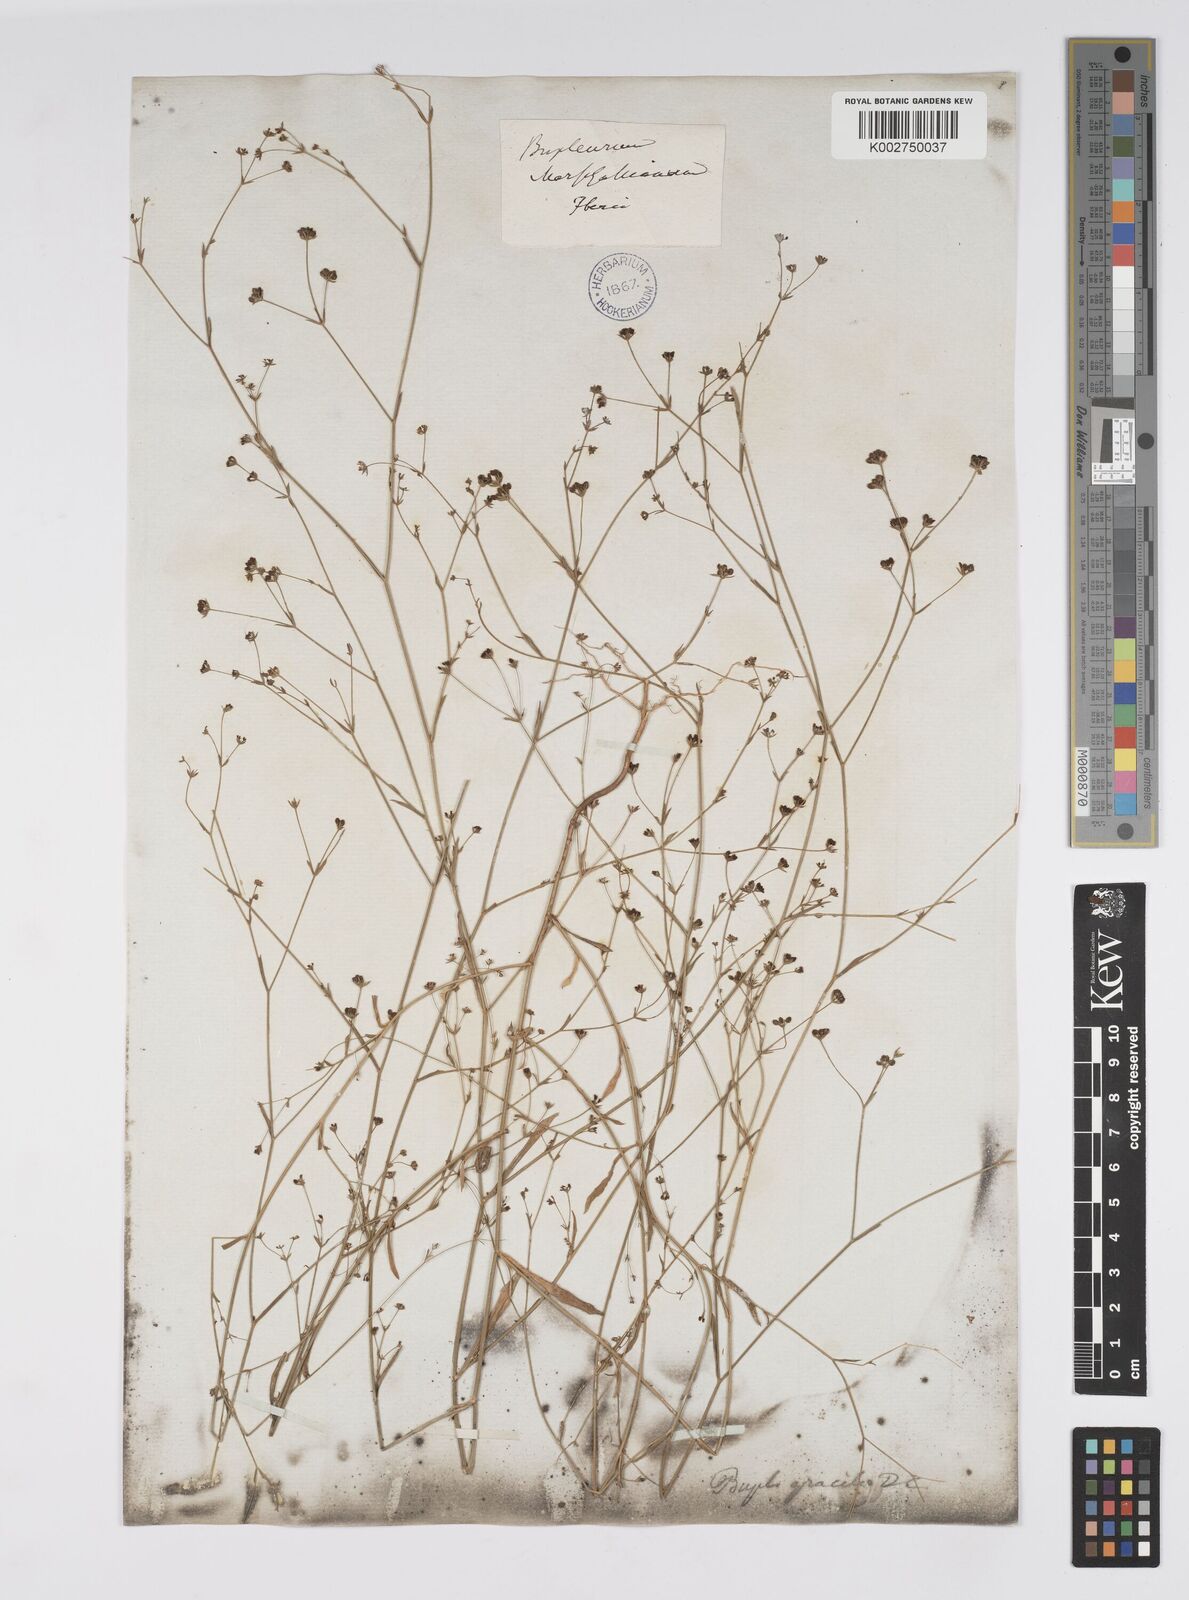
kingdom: Plantae
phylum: Tracheophyta
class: Magnoliopsida
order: Apiales
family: Apiaceae
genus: Bupleurum
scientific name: Bupleurum marschallianum
